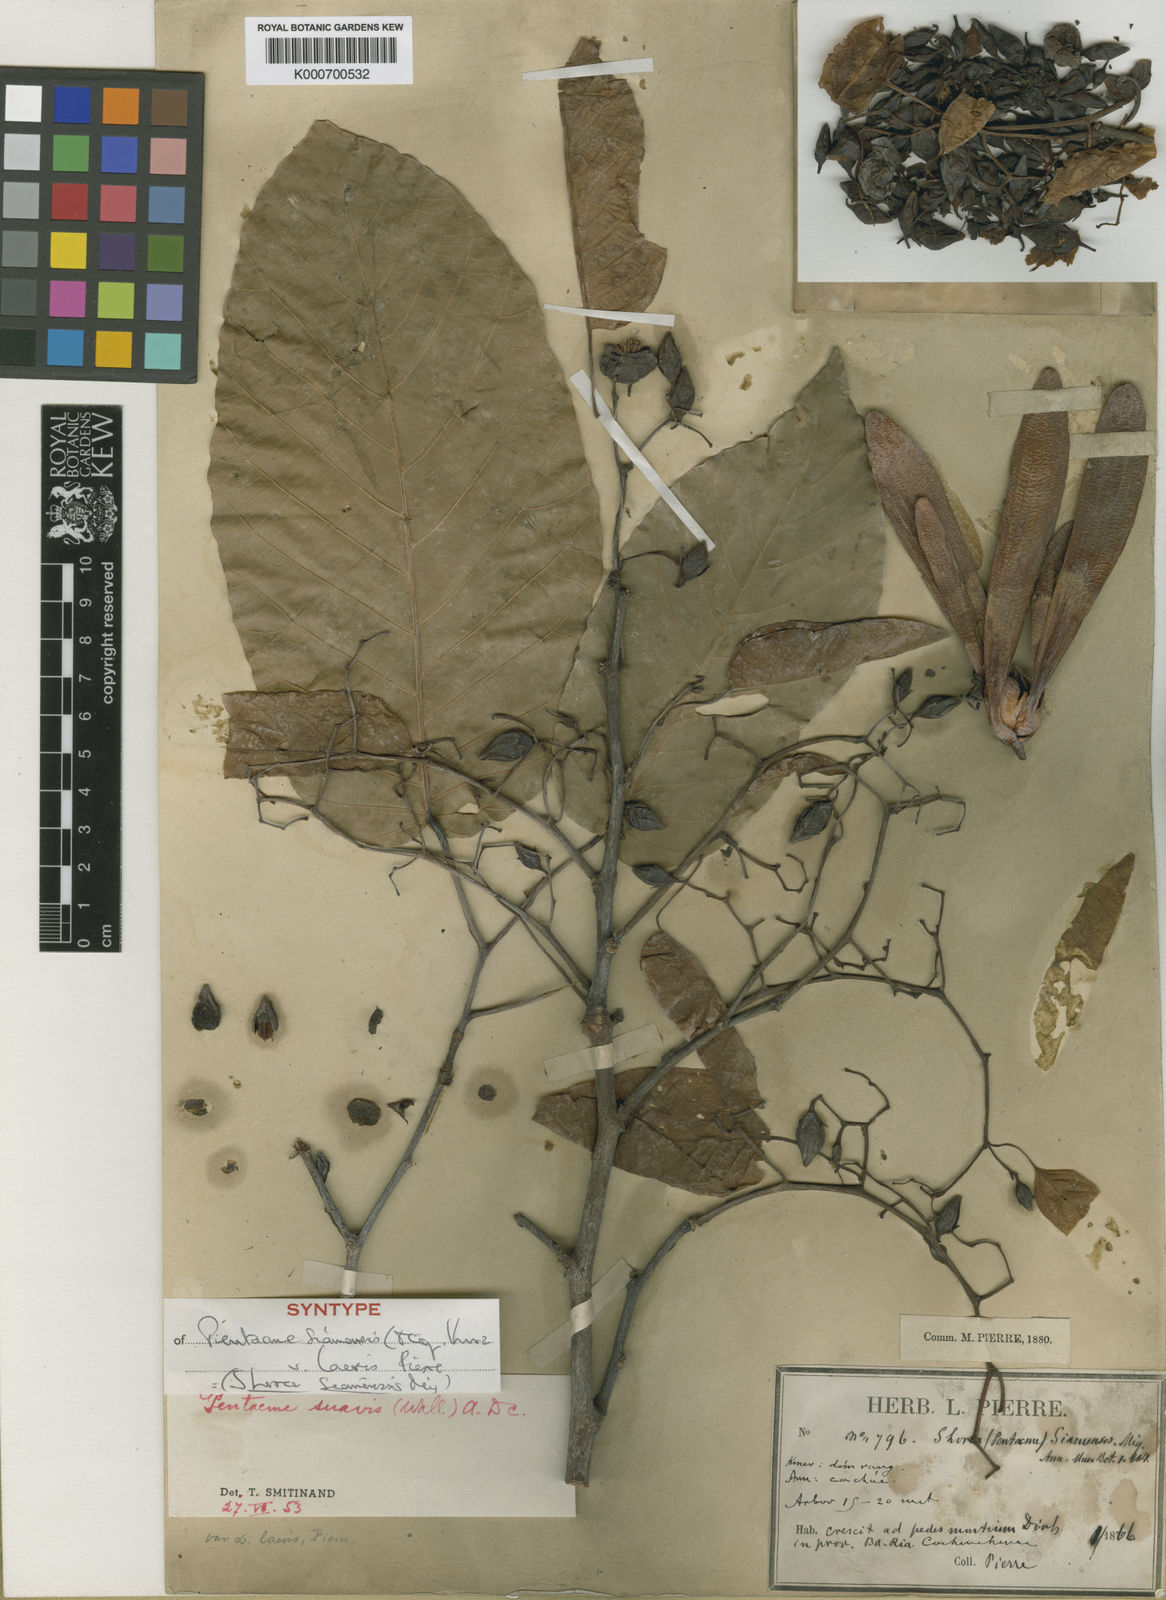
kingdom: Plantae
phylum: Tracheophyta
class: Magnoliopsida
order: Malvales
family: Dipterocarpaceae
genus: Pentacme
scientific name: Pentacme siamensis
